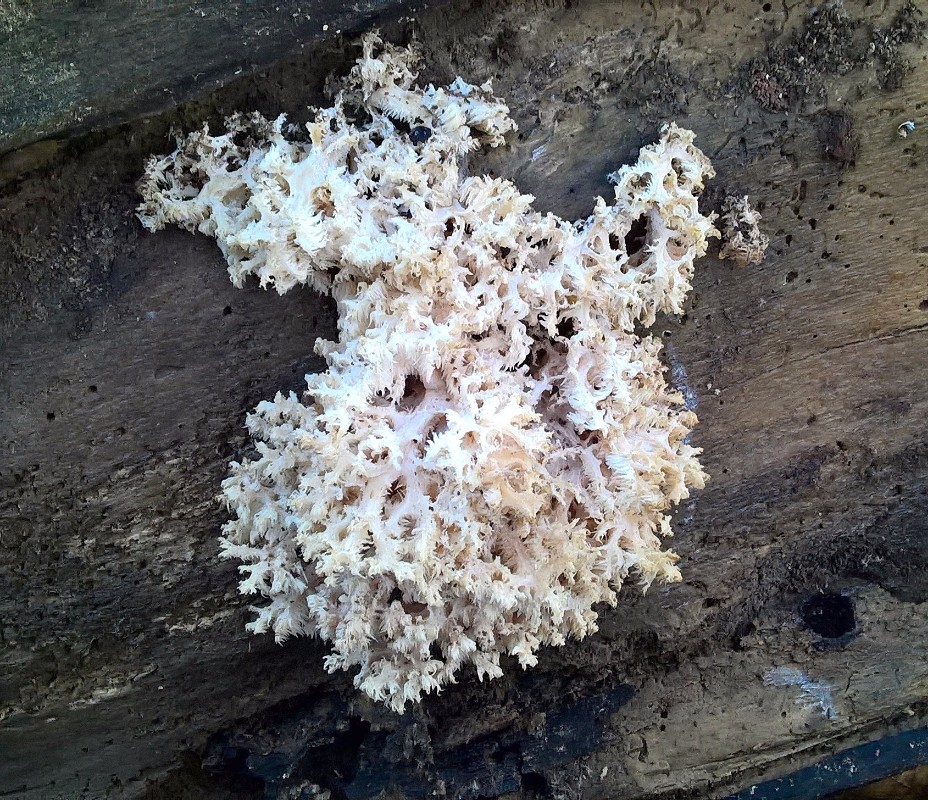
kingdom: Fungi
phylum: Basidiomycota
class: Agaricomycetes
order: Russulales
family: Hericiaceae
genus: Hericium
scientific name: Hericium coralloides
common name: koralpigsvamp
